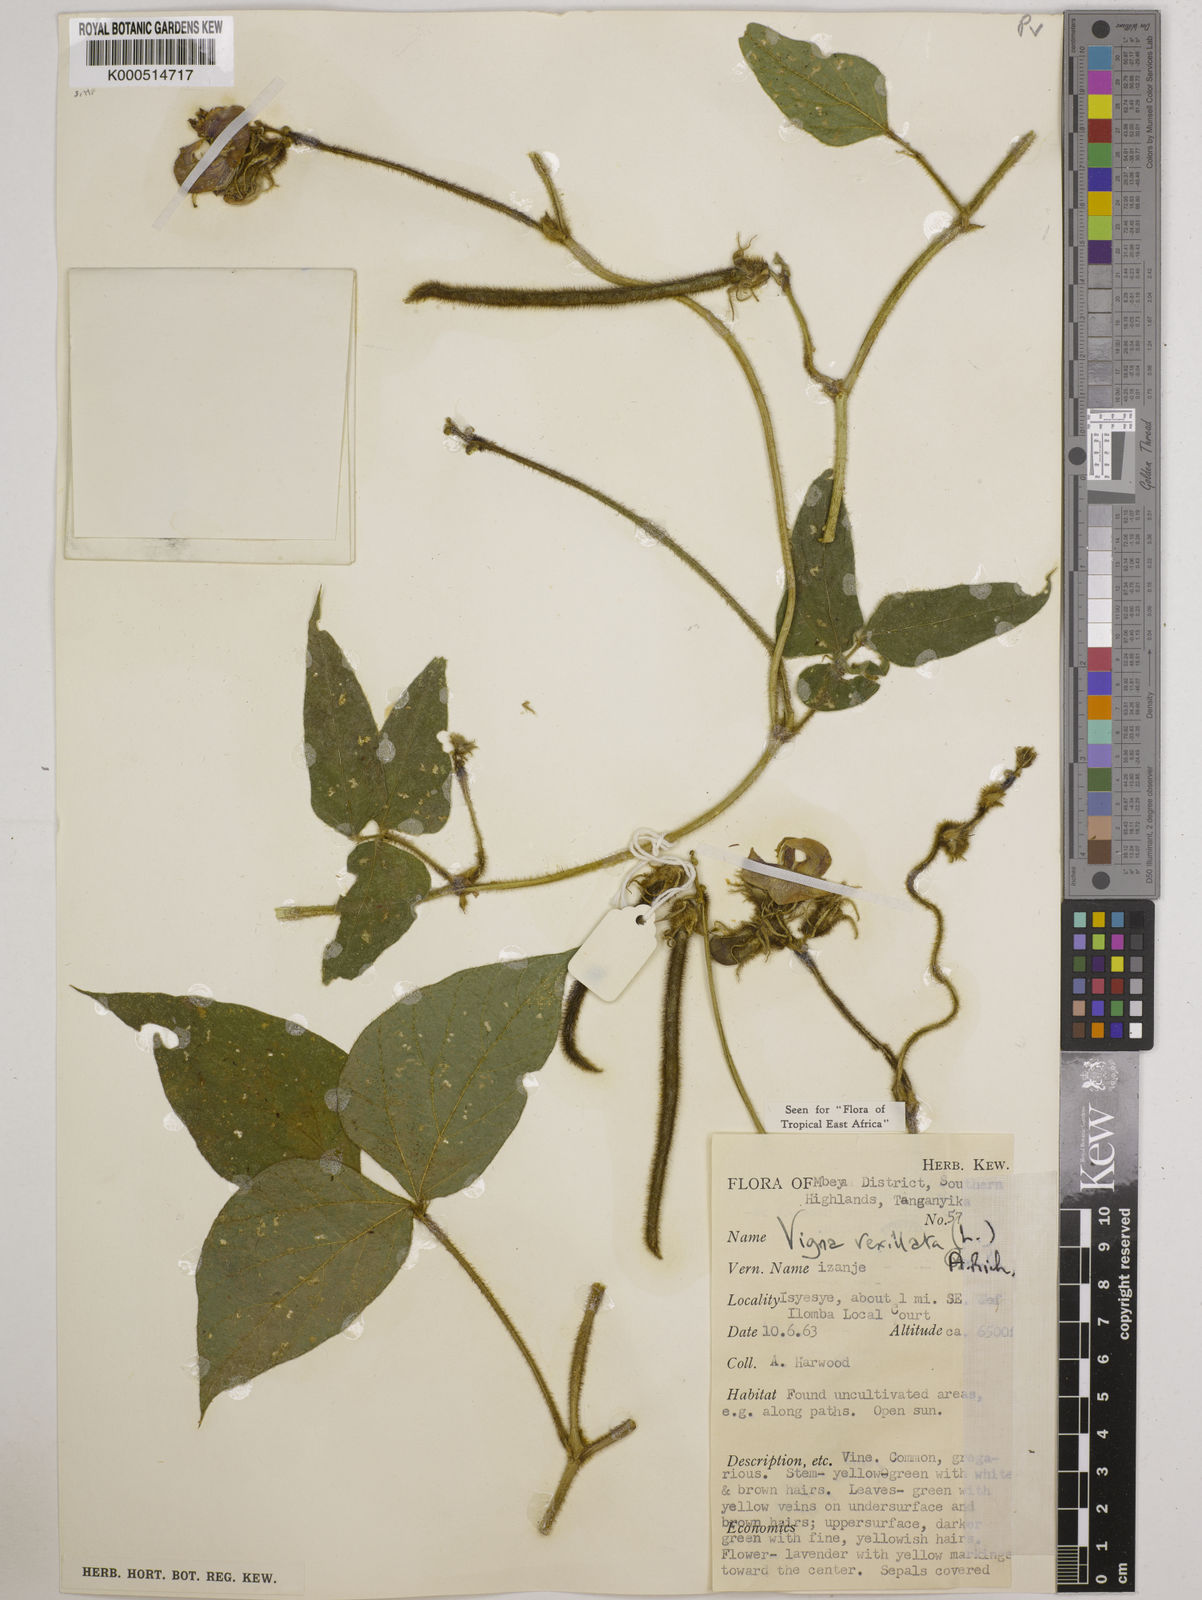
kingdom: Plantae
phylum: Tracheophyta
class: Magnoliopsida
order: Fabales
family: Fabaceae
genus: Vigna
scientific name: Vigna vexillata
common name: Zombi pea
